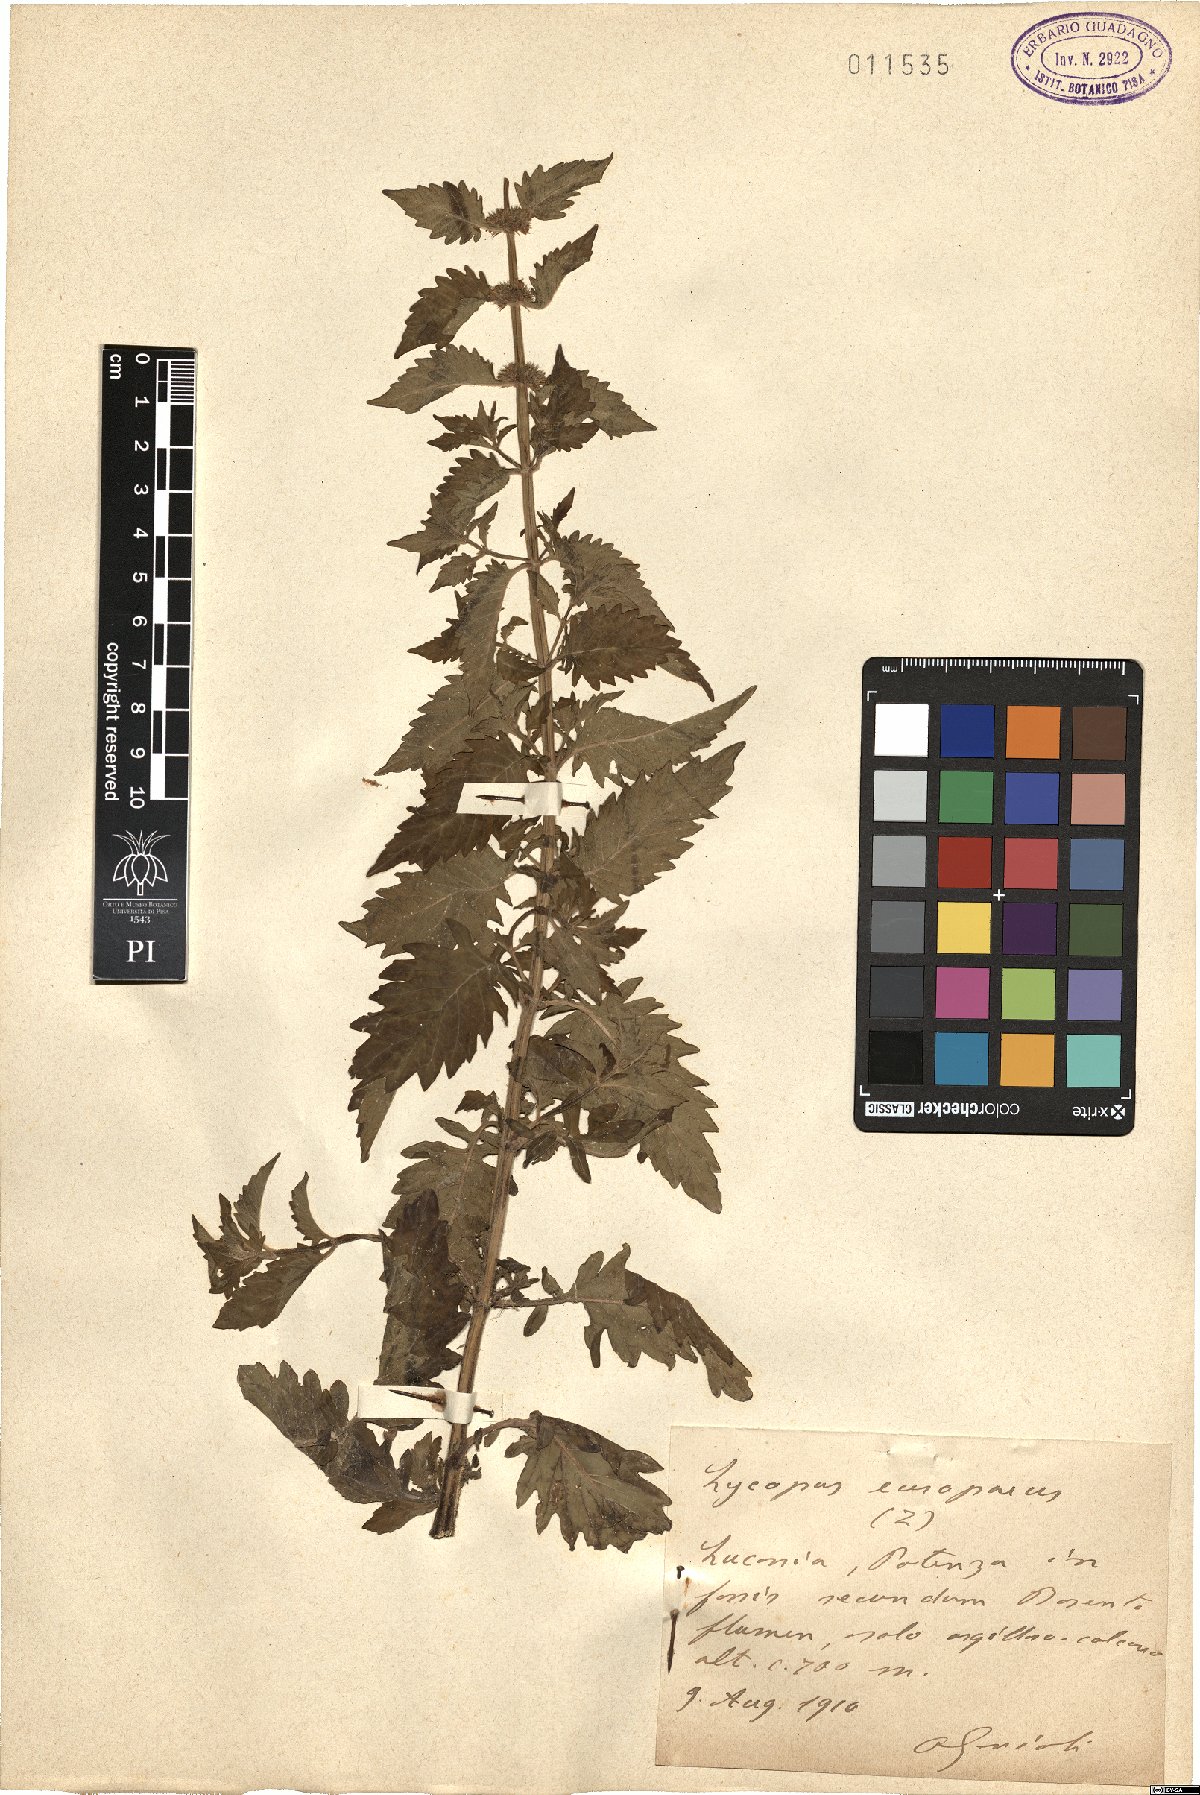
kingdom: Plantae
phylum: Tracheophyta
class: Magnoliopsida
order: Lamiales
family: Lamiaceae
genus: Lycopus
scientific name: Lycopus europaeus
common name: European bugleweed
